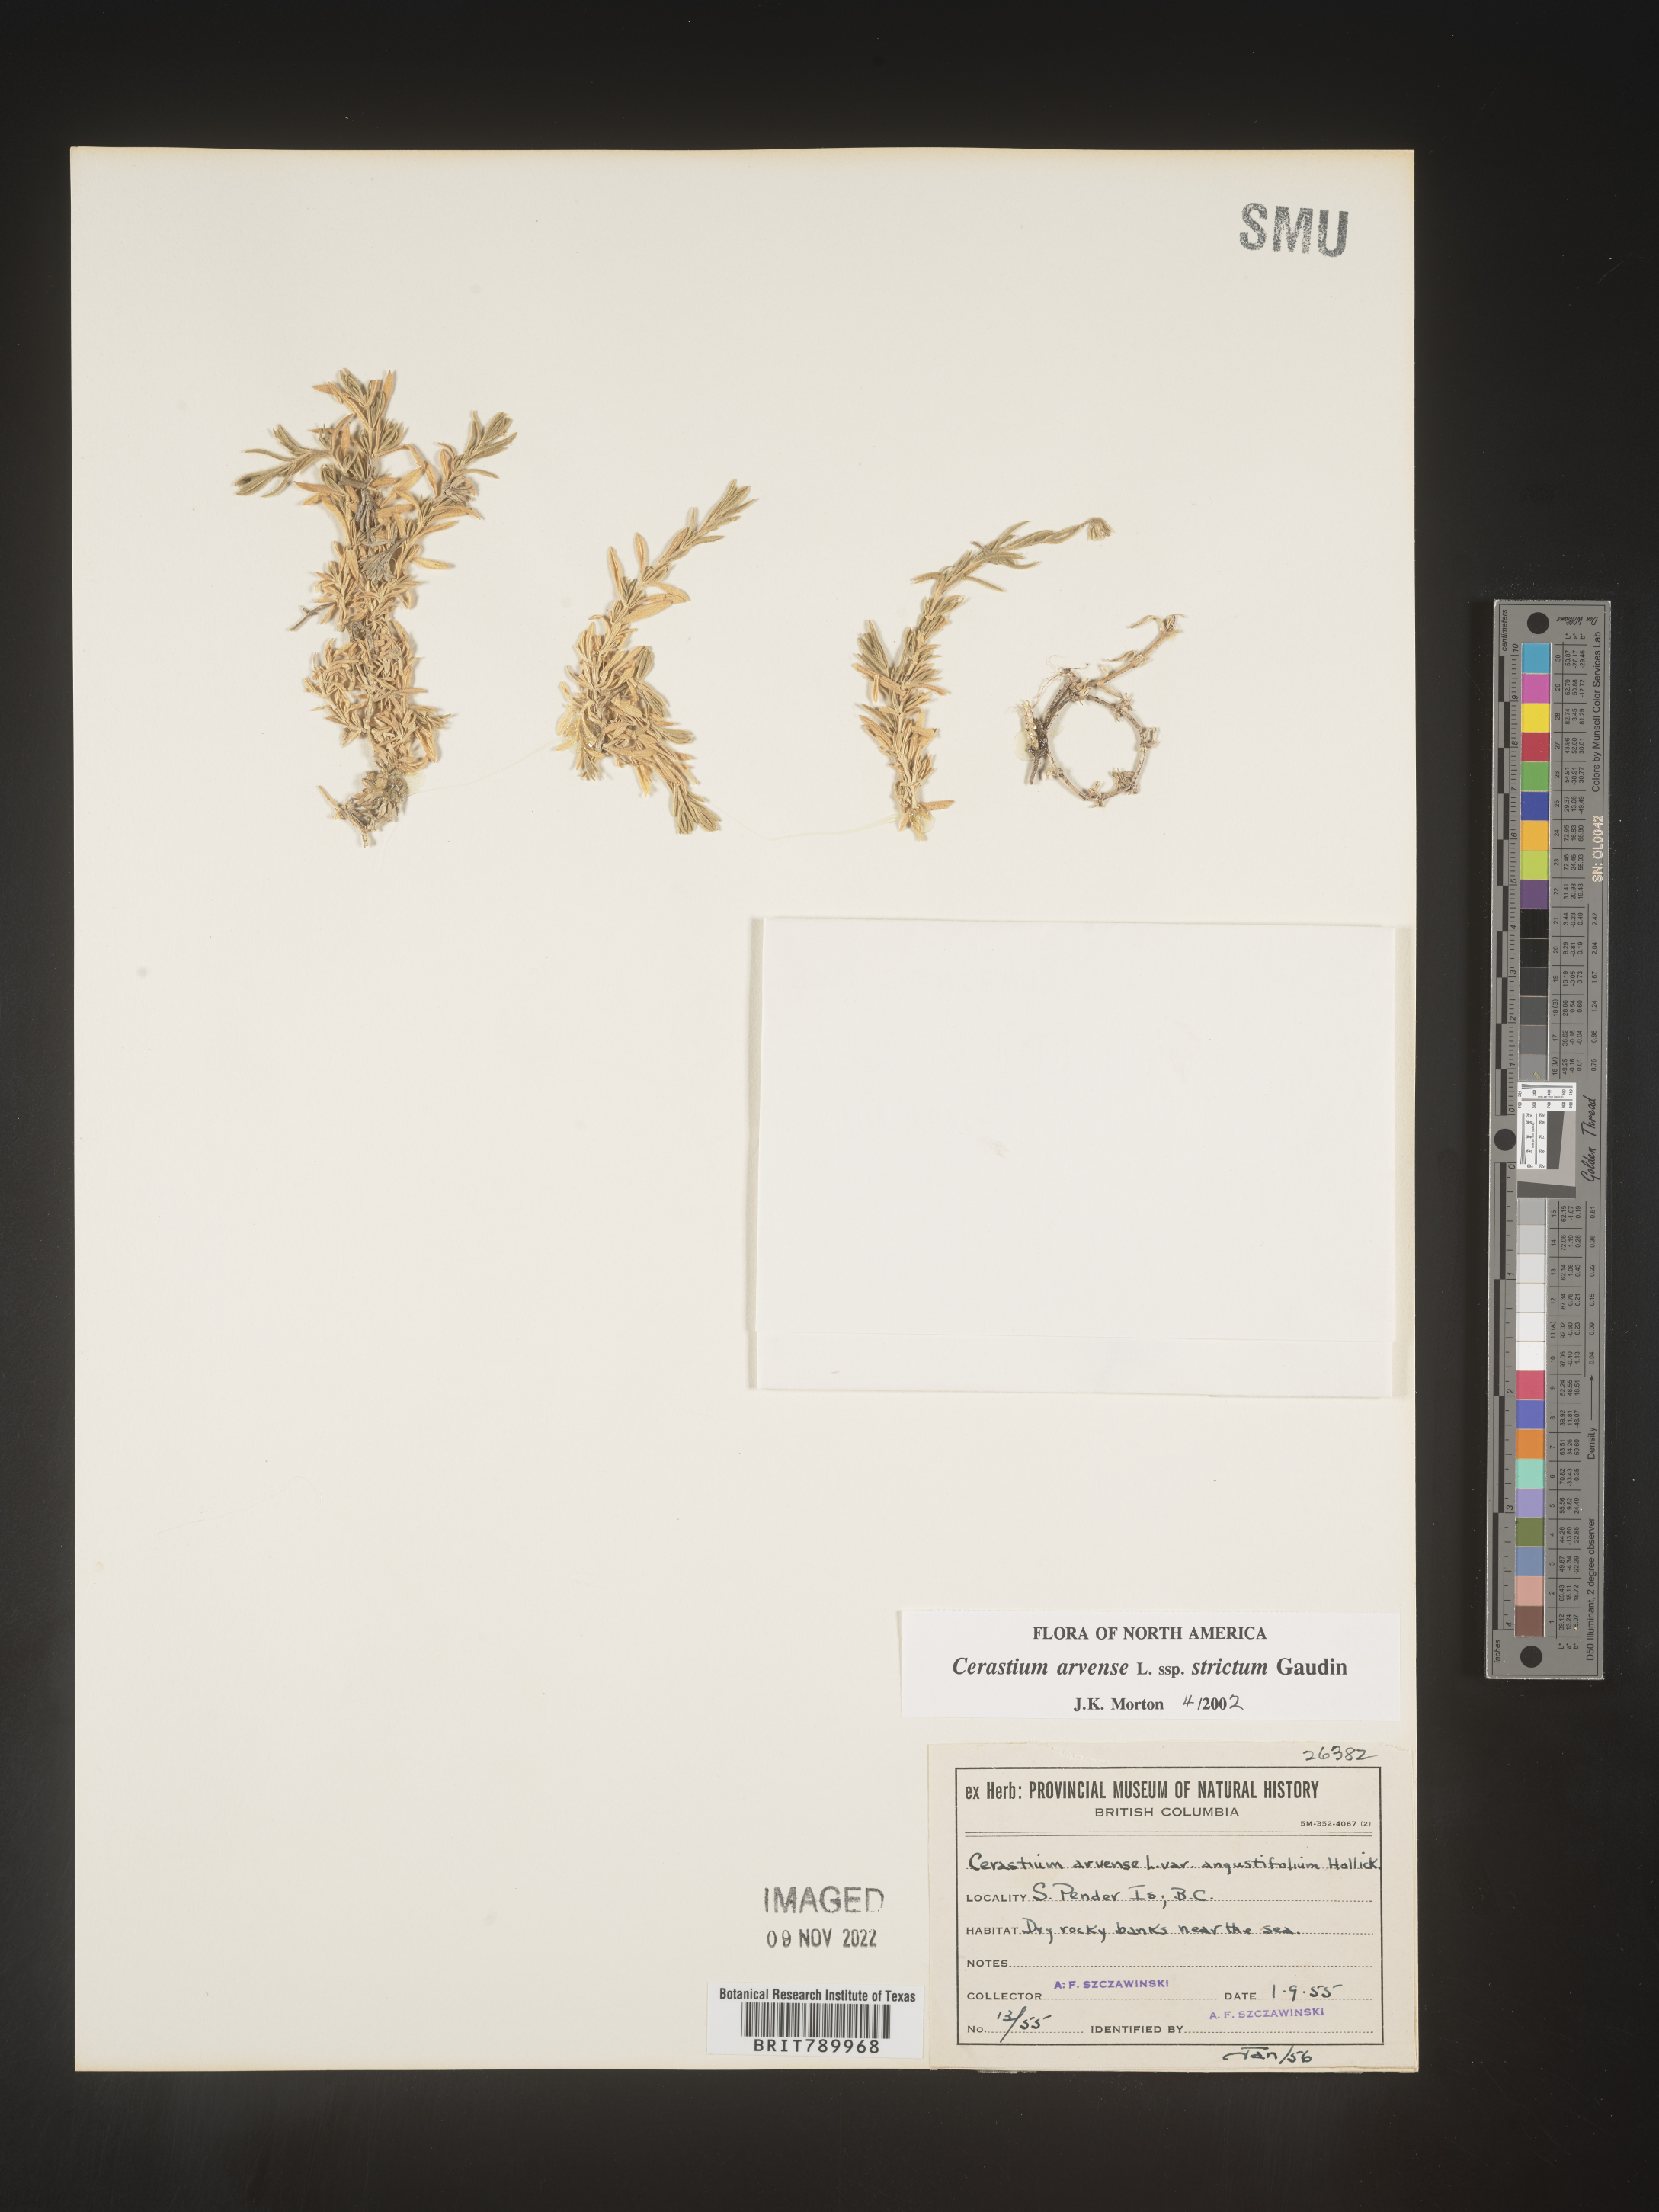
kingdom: Plantae
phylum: Tracheophyta
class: Magnoliopsida
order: Caryophyllales
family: Caryophyllaceae
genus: Cerastium
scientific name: Cerastium arvense
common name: Field mouse-ear
